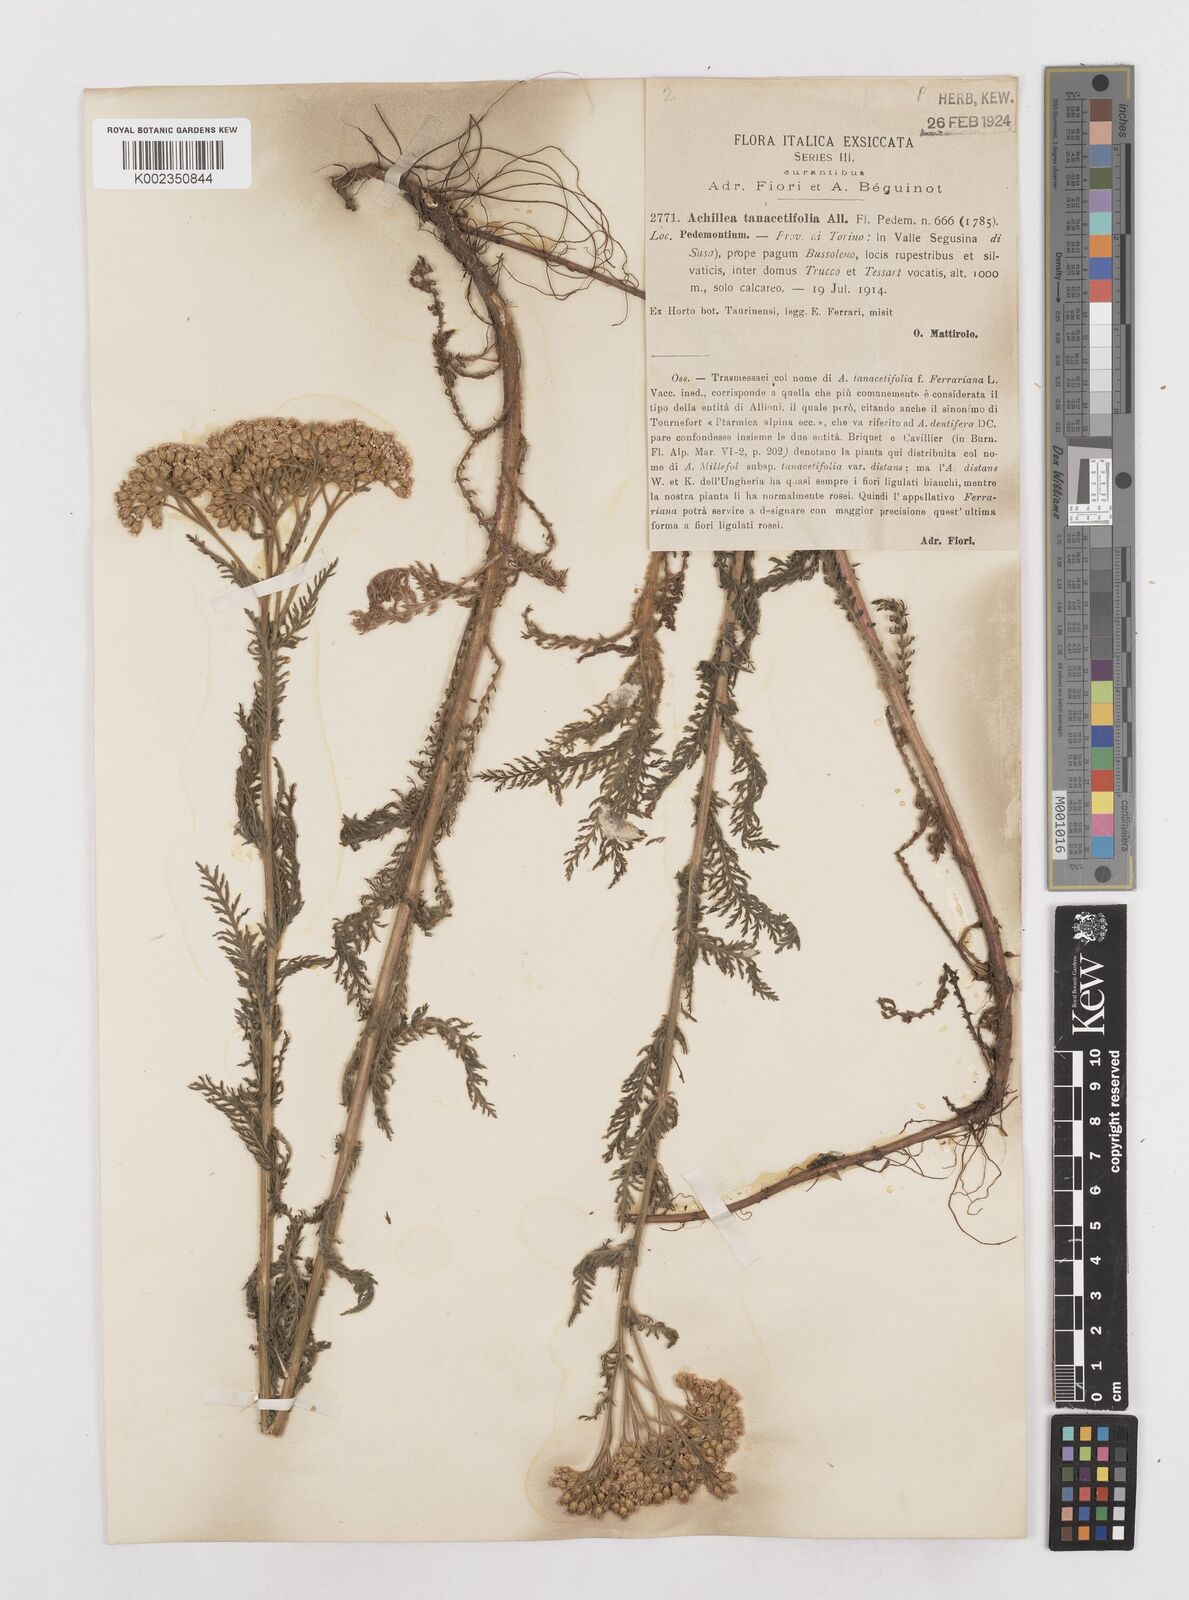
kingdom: Plantae
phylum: Tracheophyta
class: Magnoliopsida
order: Asterales
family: Asteraceae
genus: Achillea
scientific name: Achillea distans
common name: Tall yarrow
